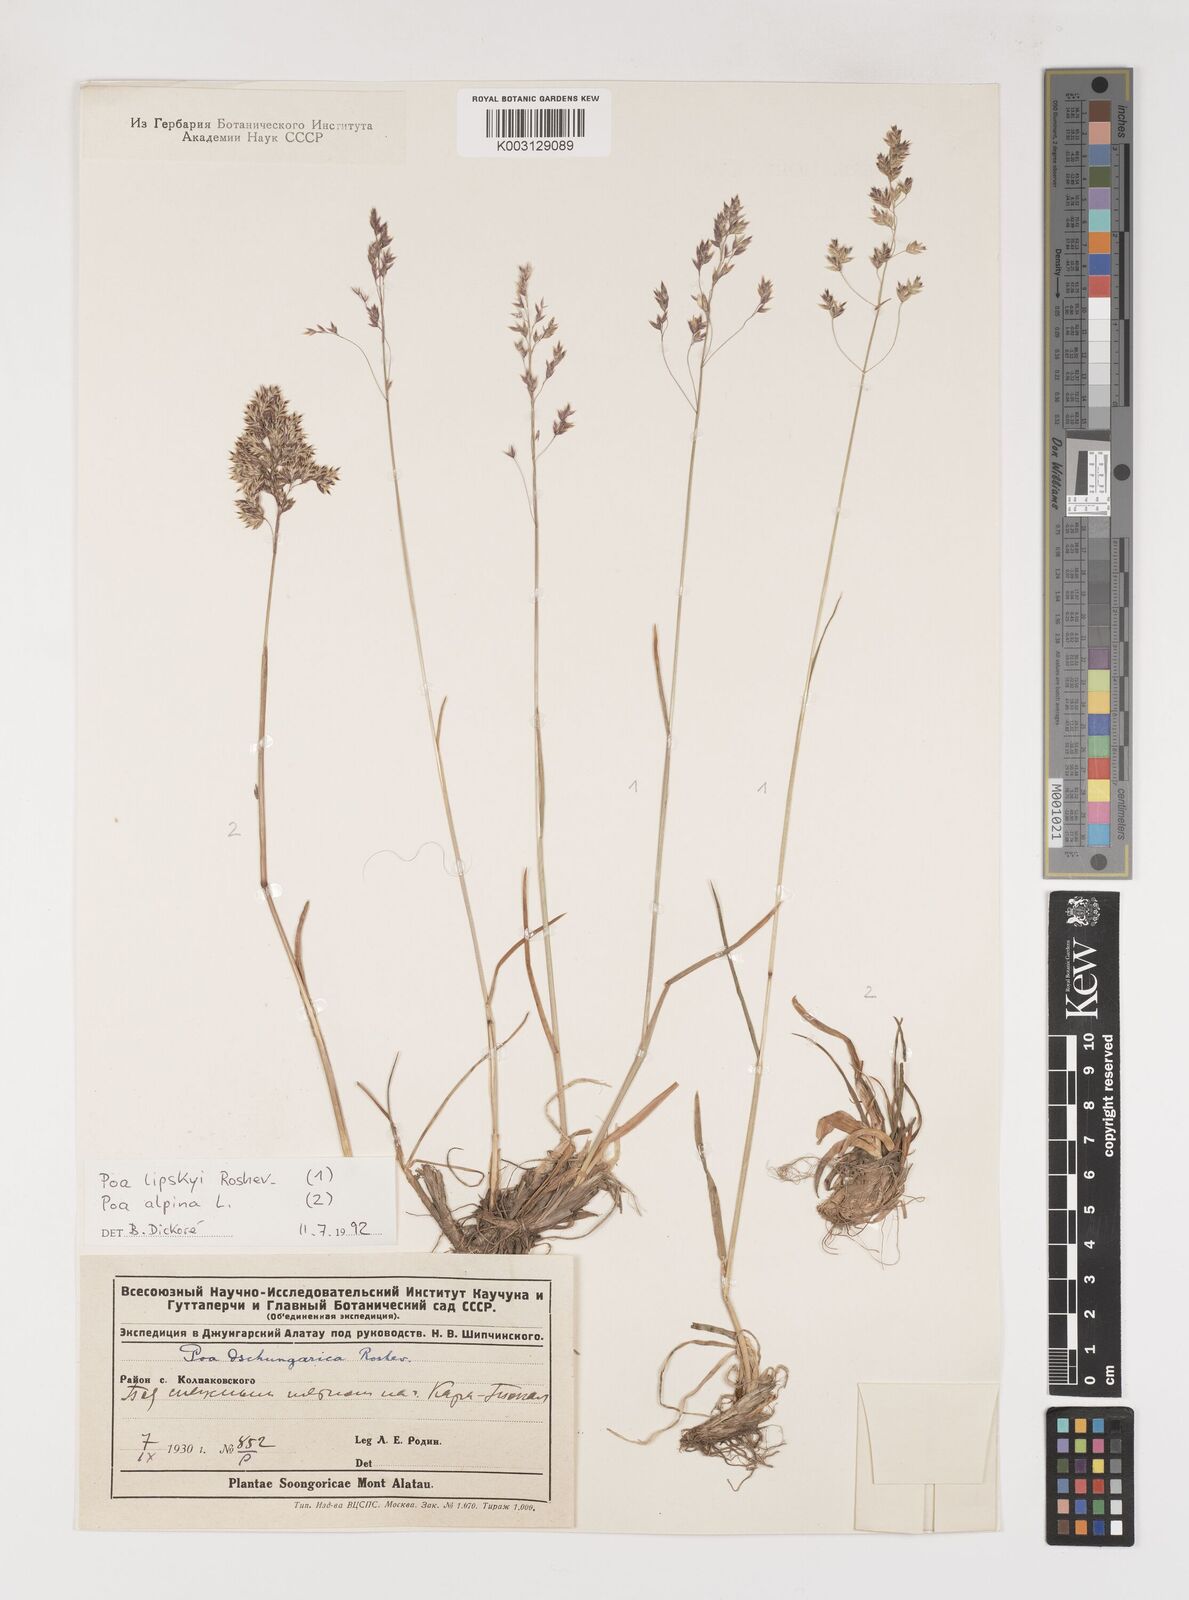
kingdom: Plantae
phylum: Tracheophyta
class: Liliopsida
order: Poales
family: Poaceae
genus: Poa
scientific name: Poa lipskyi
